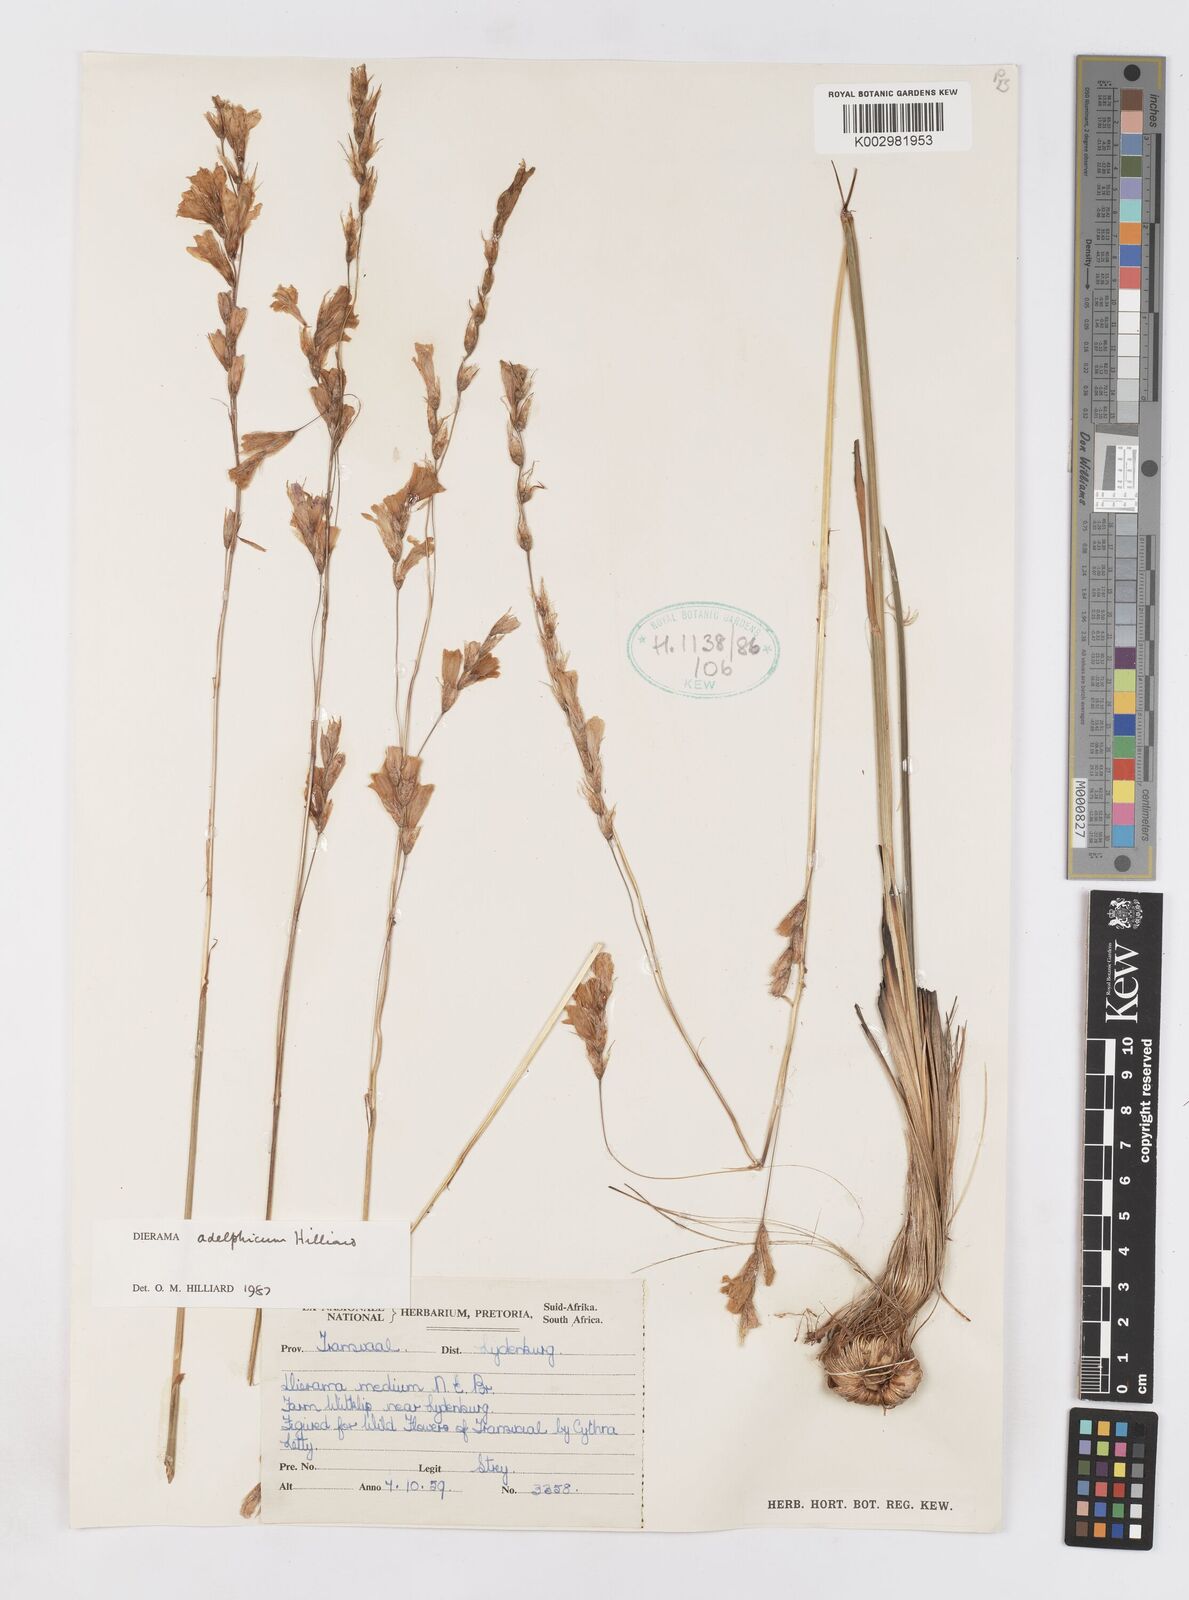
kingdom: Plantae
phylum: Tracheophyta
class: Liliopsida
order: Asparagales
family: Iridaceae
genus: Dierama
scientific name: Dierama adelphicum
